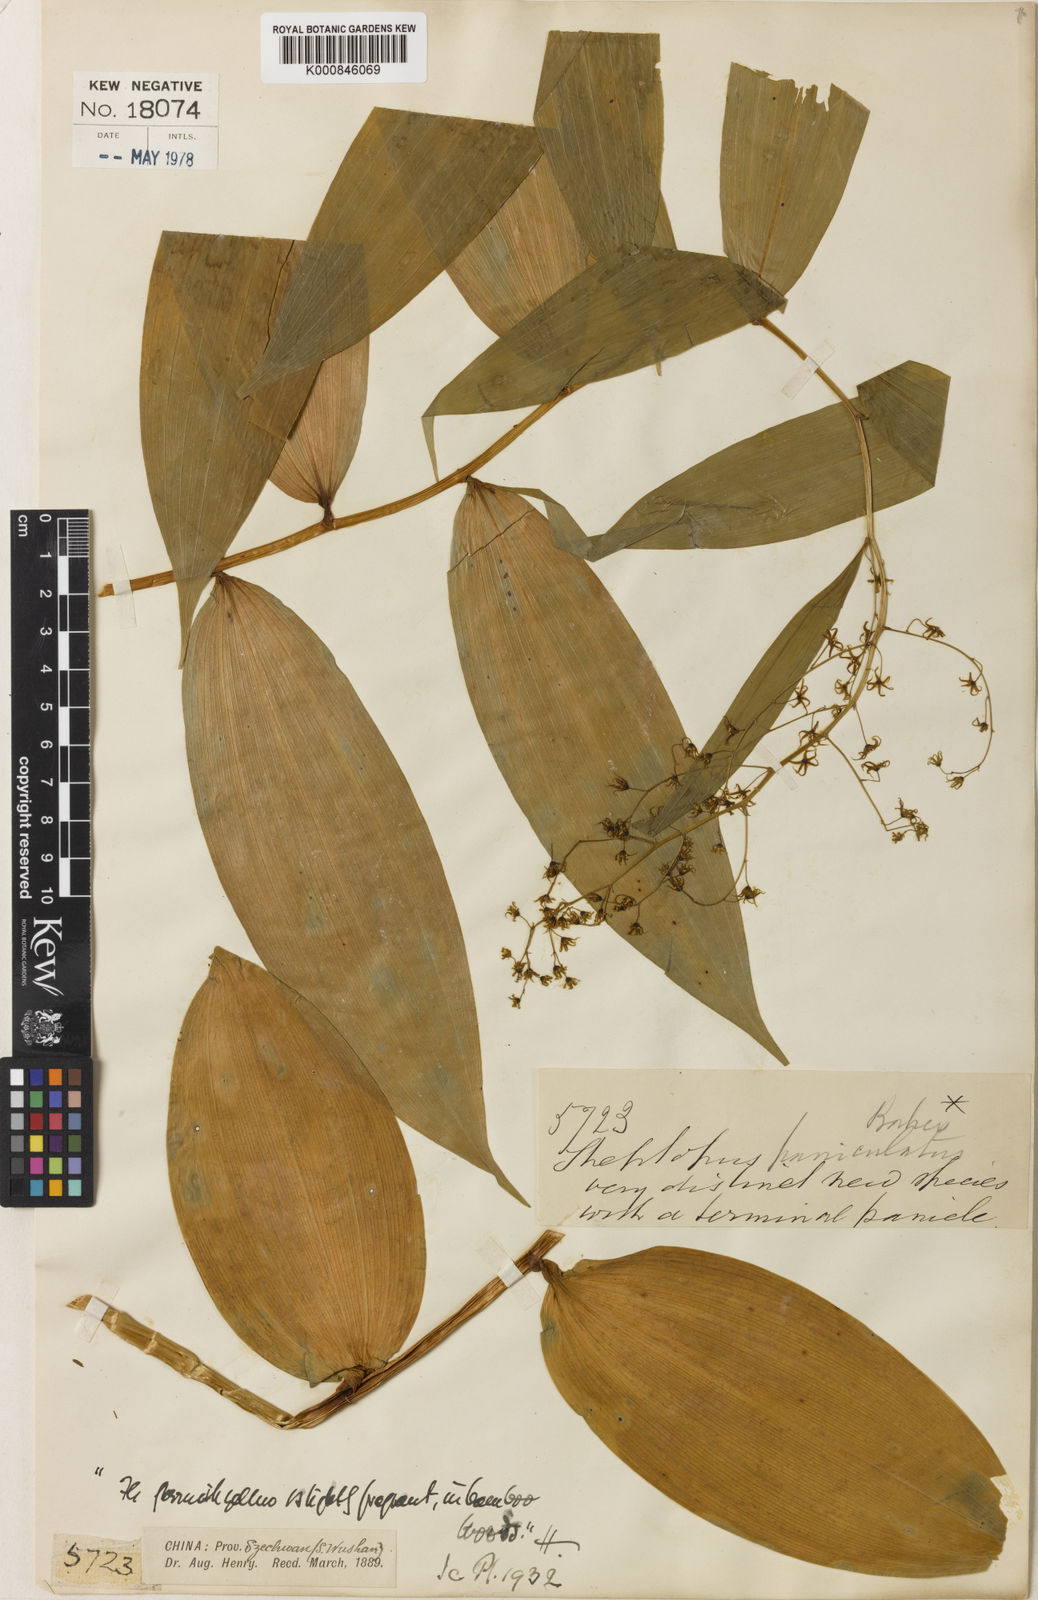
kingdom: Plantae
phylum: Tracheophyta
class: Liliopsida
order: Asparagales
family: Asparagaceae
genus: Maianthemum
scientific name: Maianthemum paniculatum
